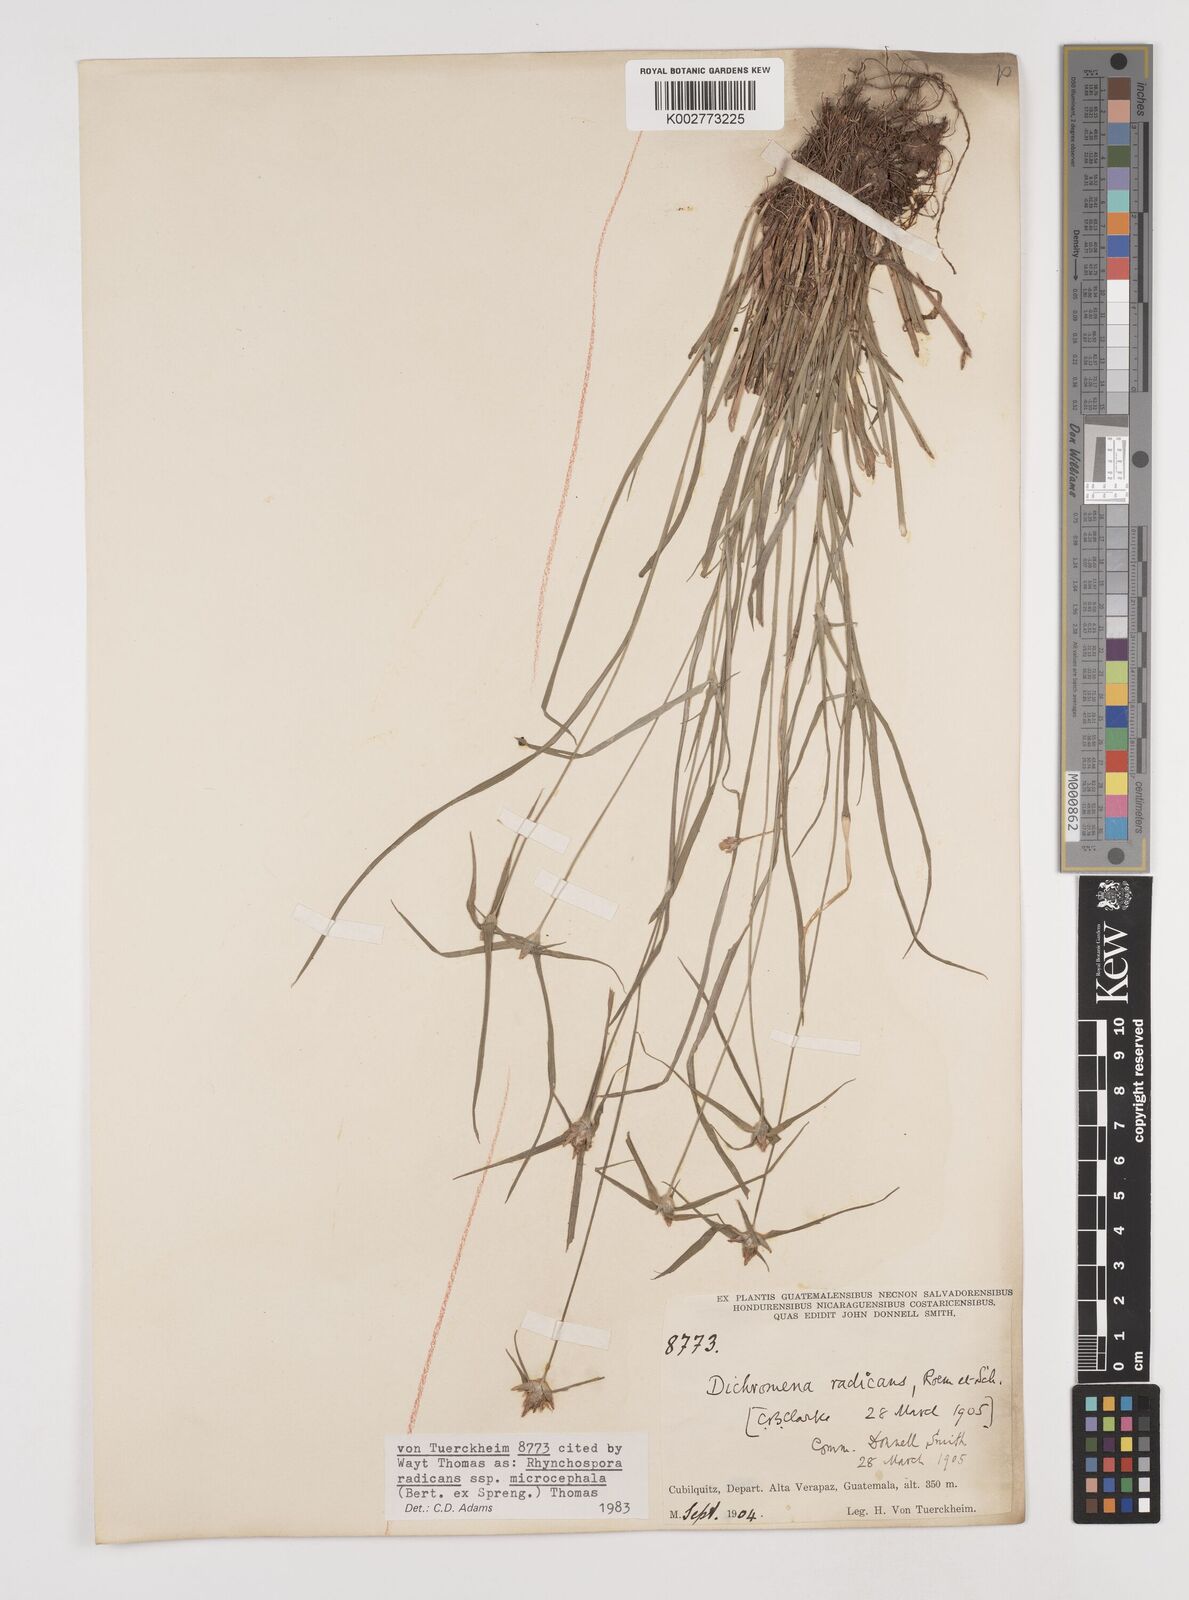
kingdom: Plantae
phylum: Tracheophyta
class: Liliopsida
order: Poales
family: Cyperaceae
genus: Rhynchospora
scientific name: Rhynchospora radicans
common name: Tropical whitetop
